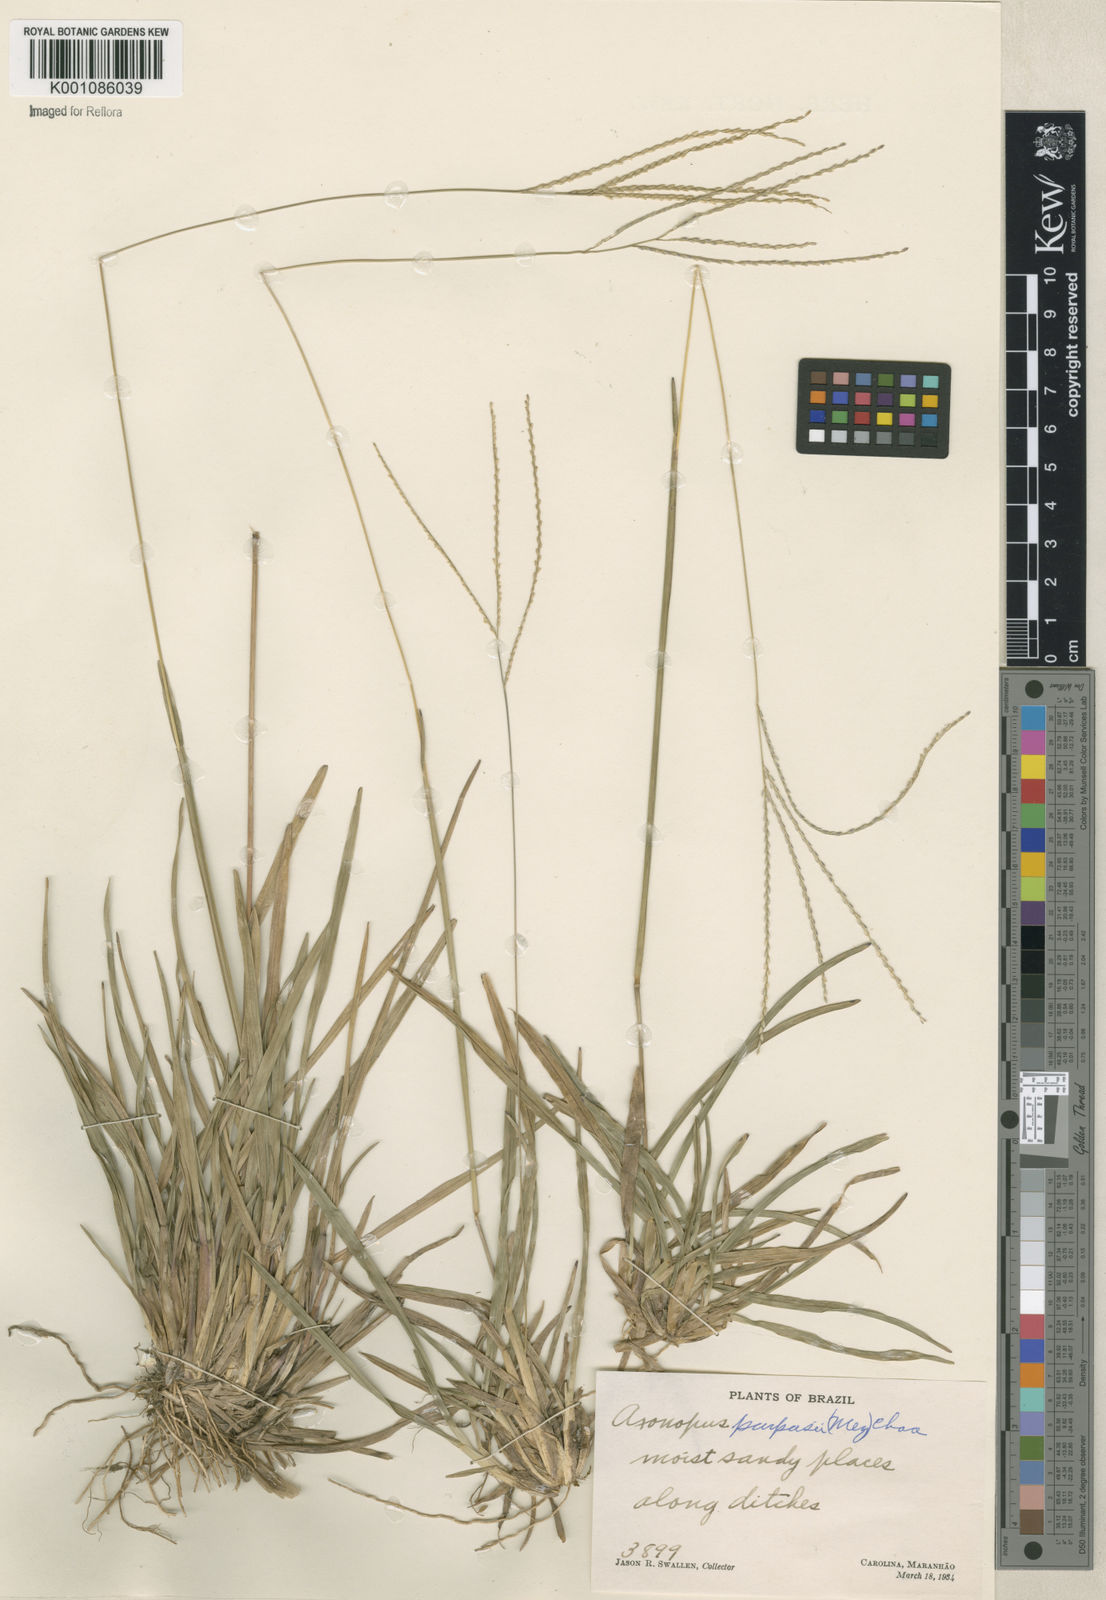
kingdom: Plantae
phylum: Tracheophyta
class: Liliopsida
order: Poales
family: Poaceae
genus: Axonopus
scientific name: Axonopus purpusii
